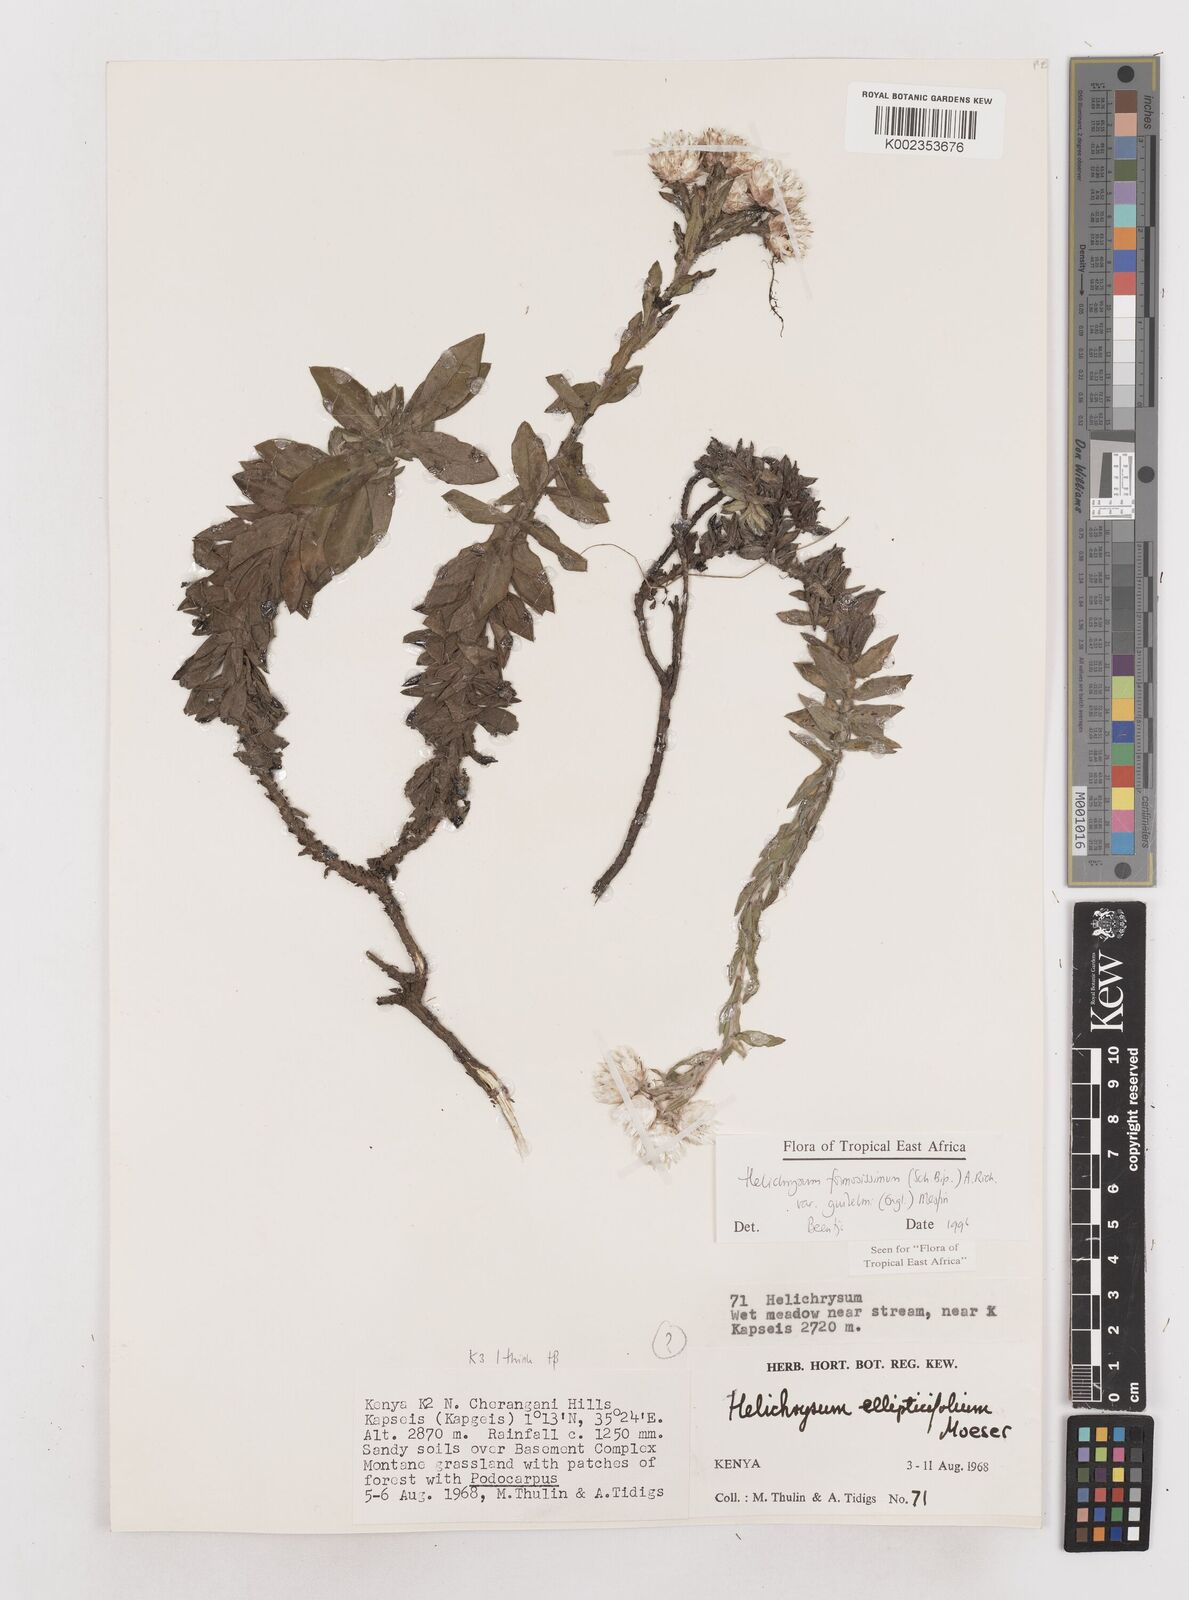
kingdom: Plantae
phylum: Tracheophyta
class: Magnoliopsida
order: Asterales
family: Asteraceae
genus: Helichrysum
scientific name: Helichrysum formosissimum
